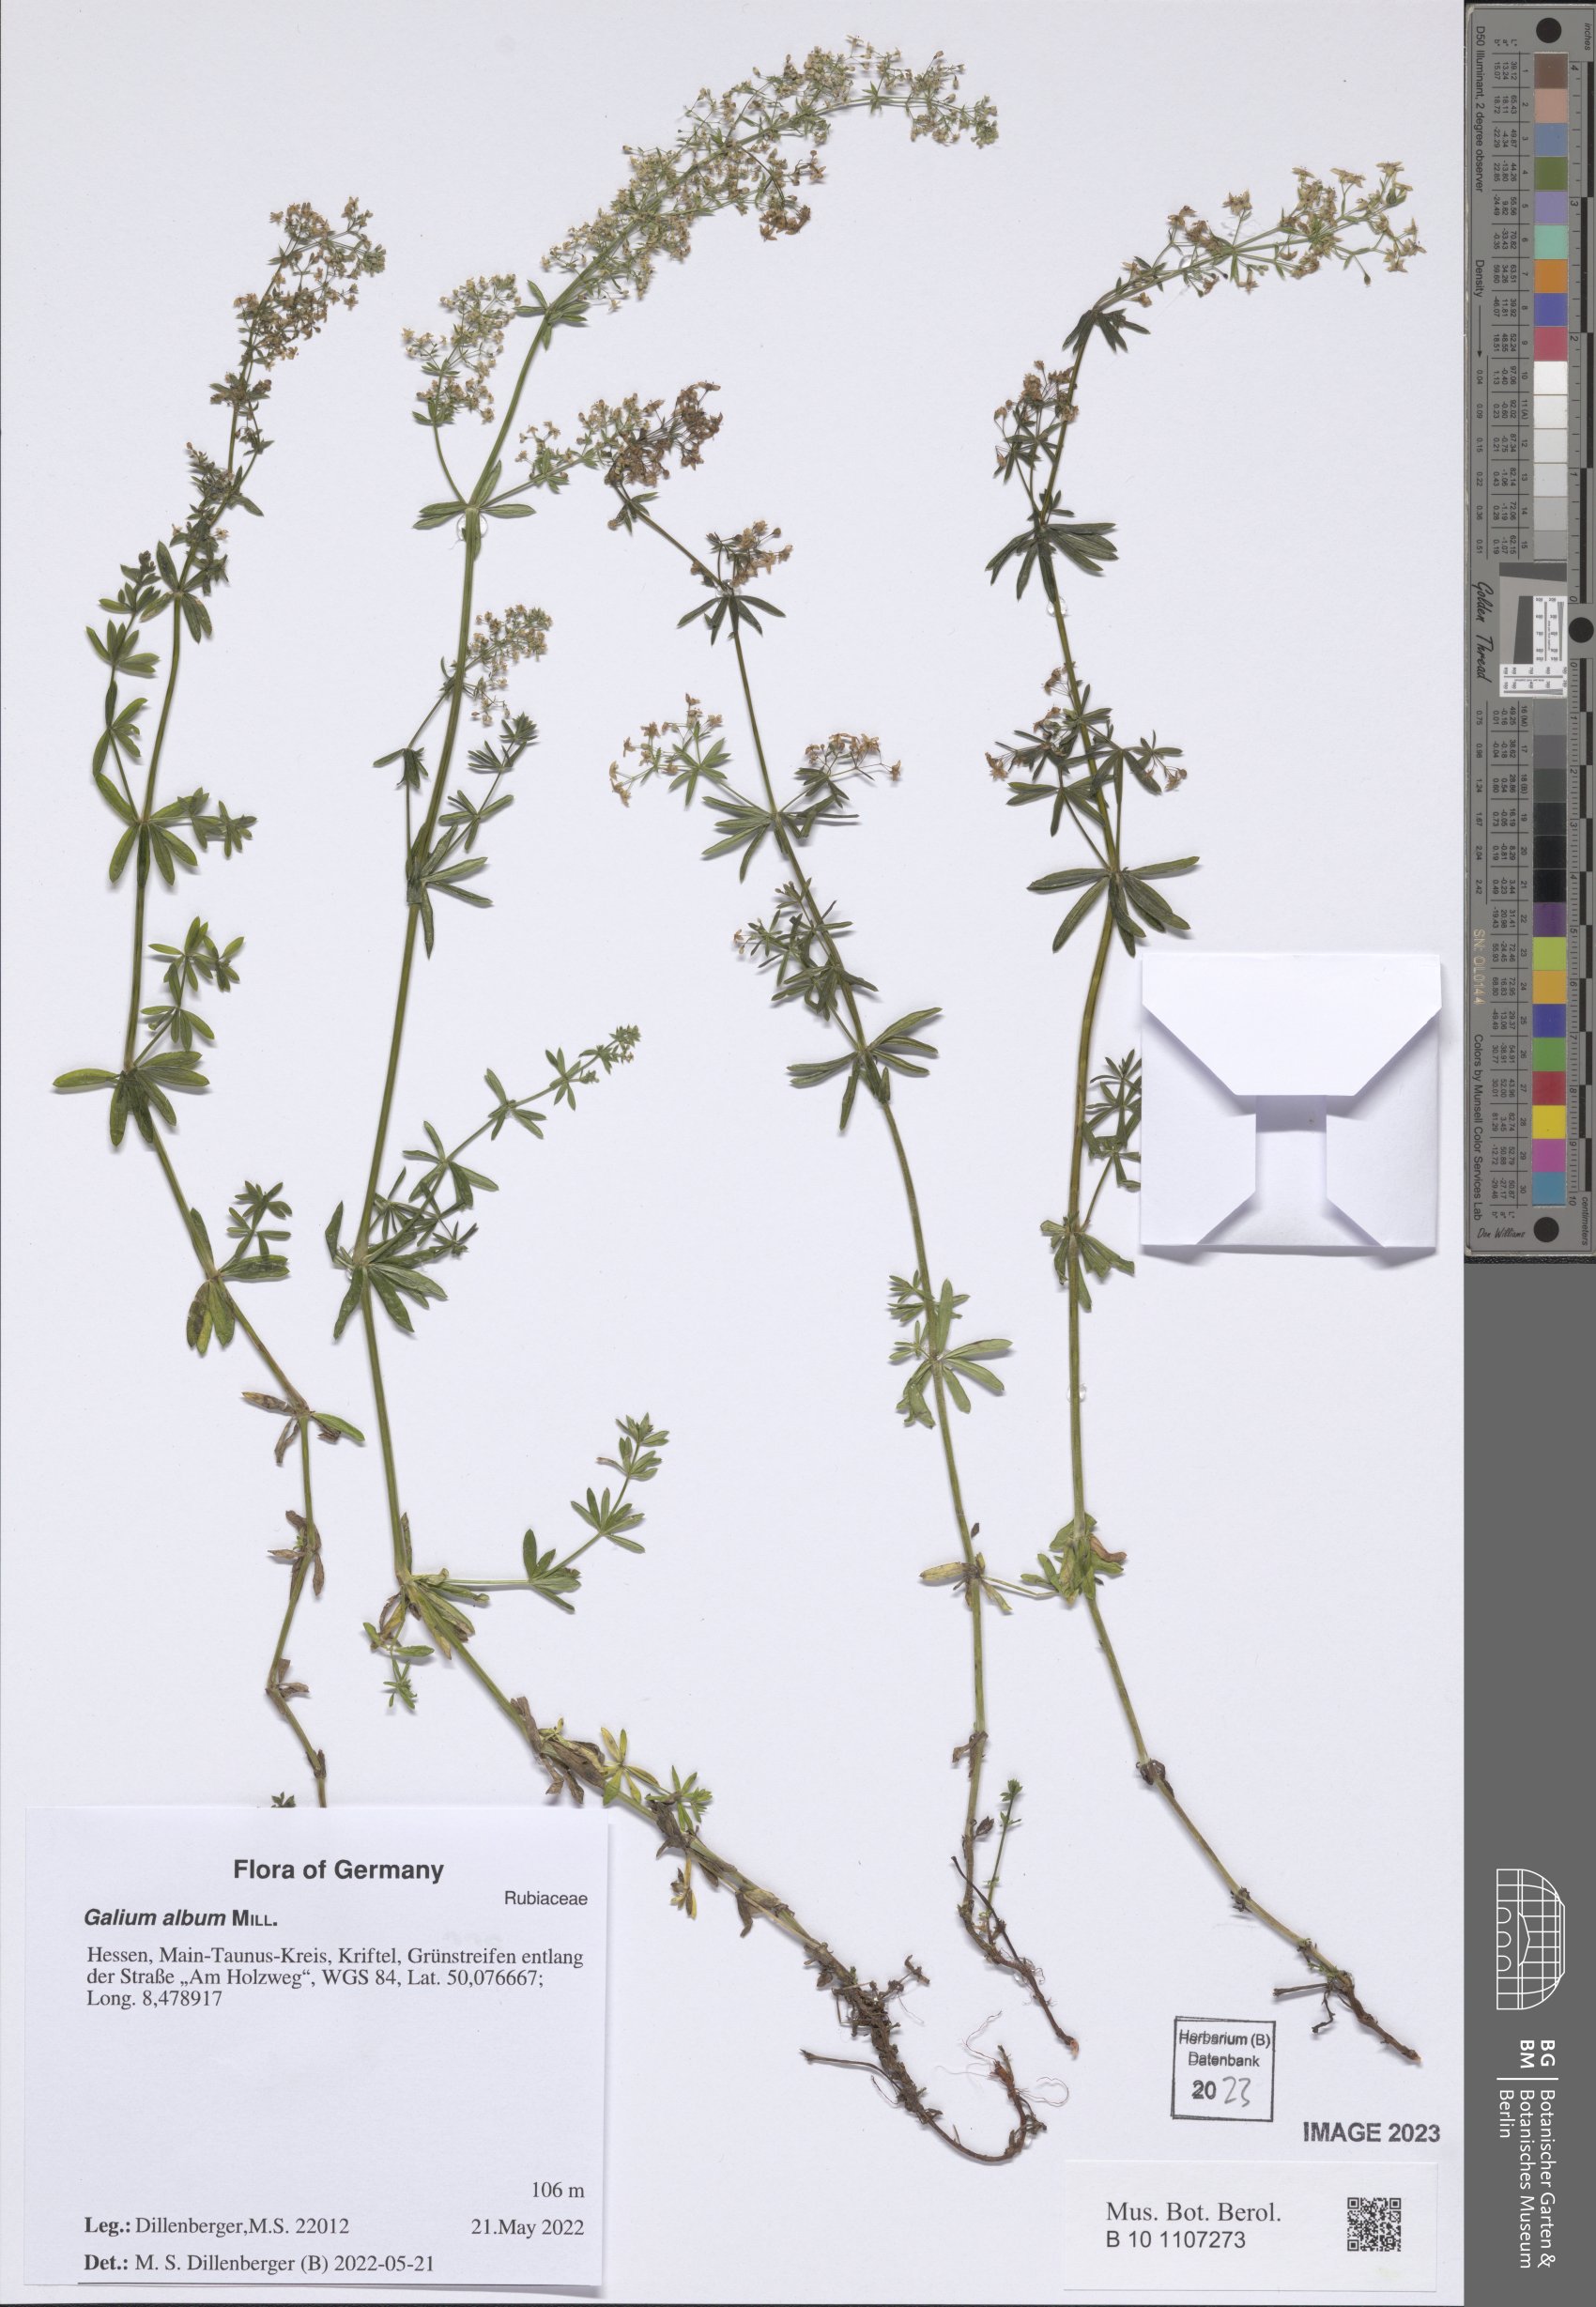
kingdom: Plantae
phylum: Tracheophyta
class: Magnoliopsida
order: Gentianales
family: Rubiaceae
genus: Galium
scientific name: Galium album
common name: White bedstraw
